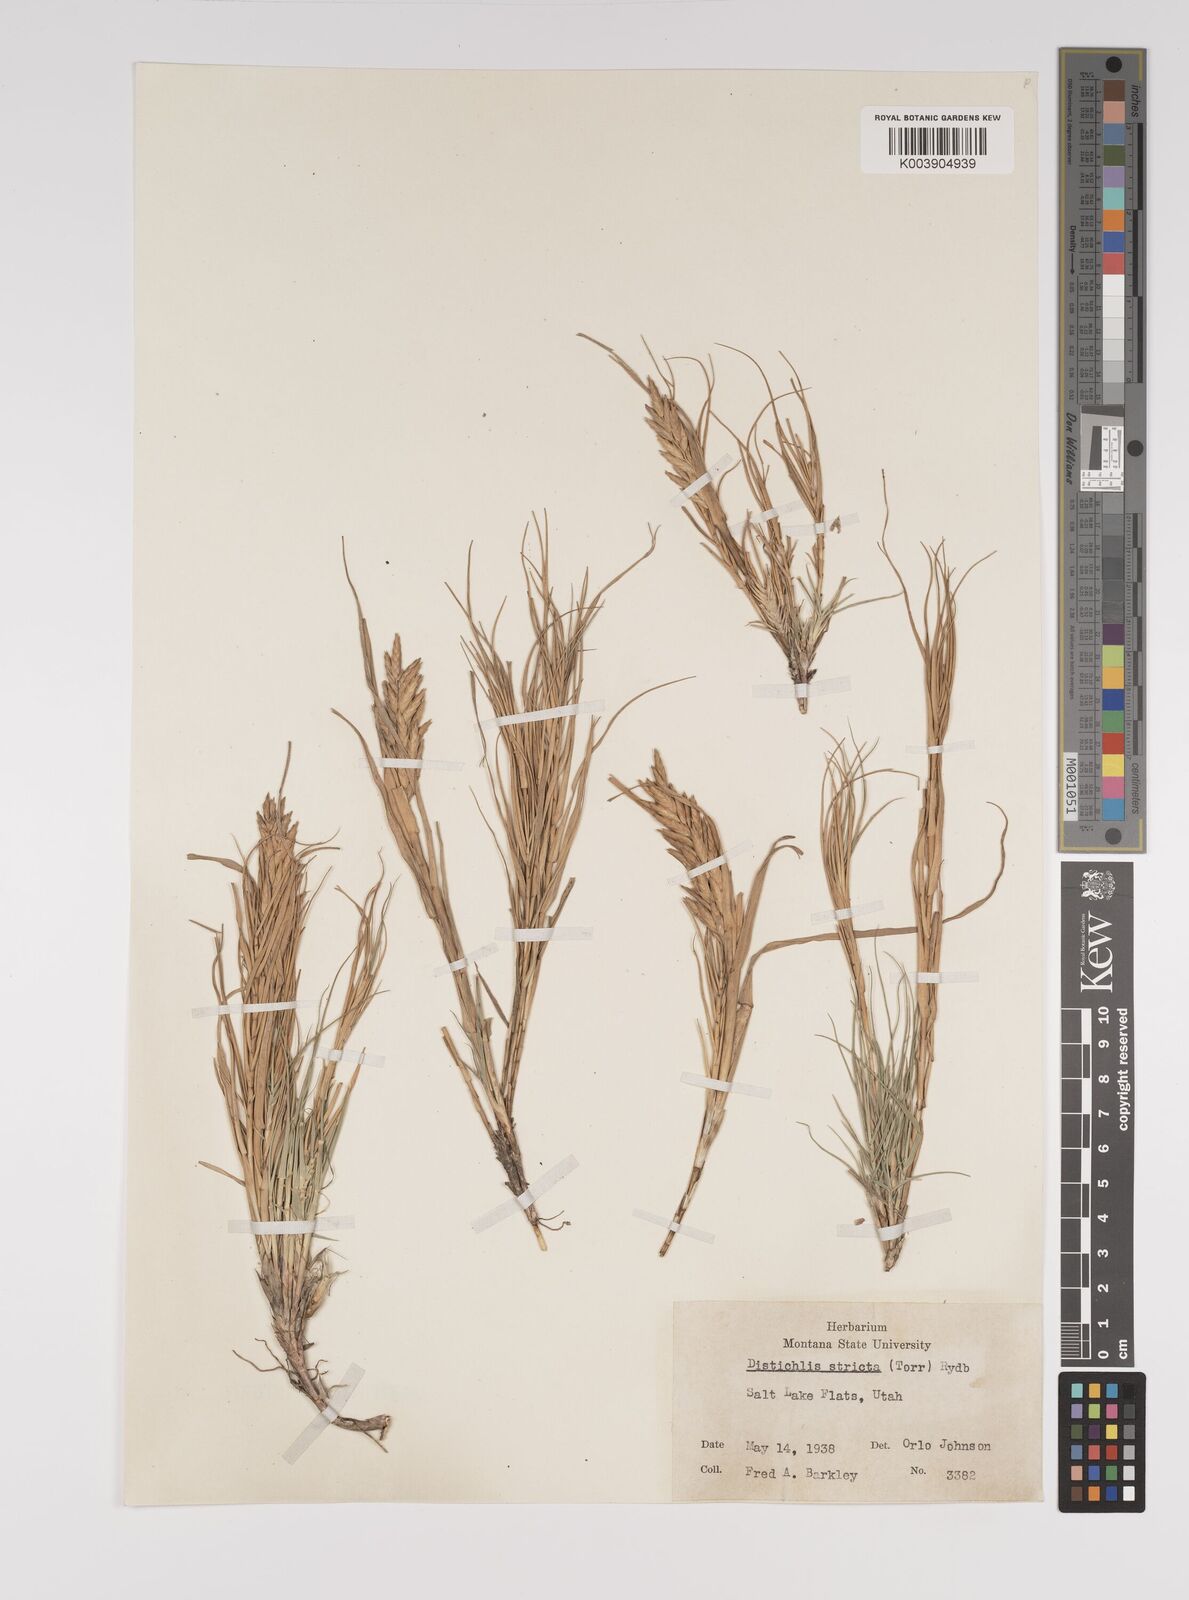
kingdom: Plantae
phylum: Tracheophyta
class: Liliopsida
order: Poales
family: Poaceae
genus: Distichlis
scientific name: Distichlis spicata
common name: Saltgrass
